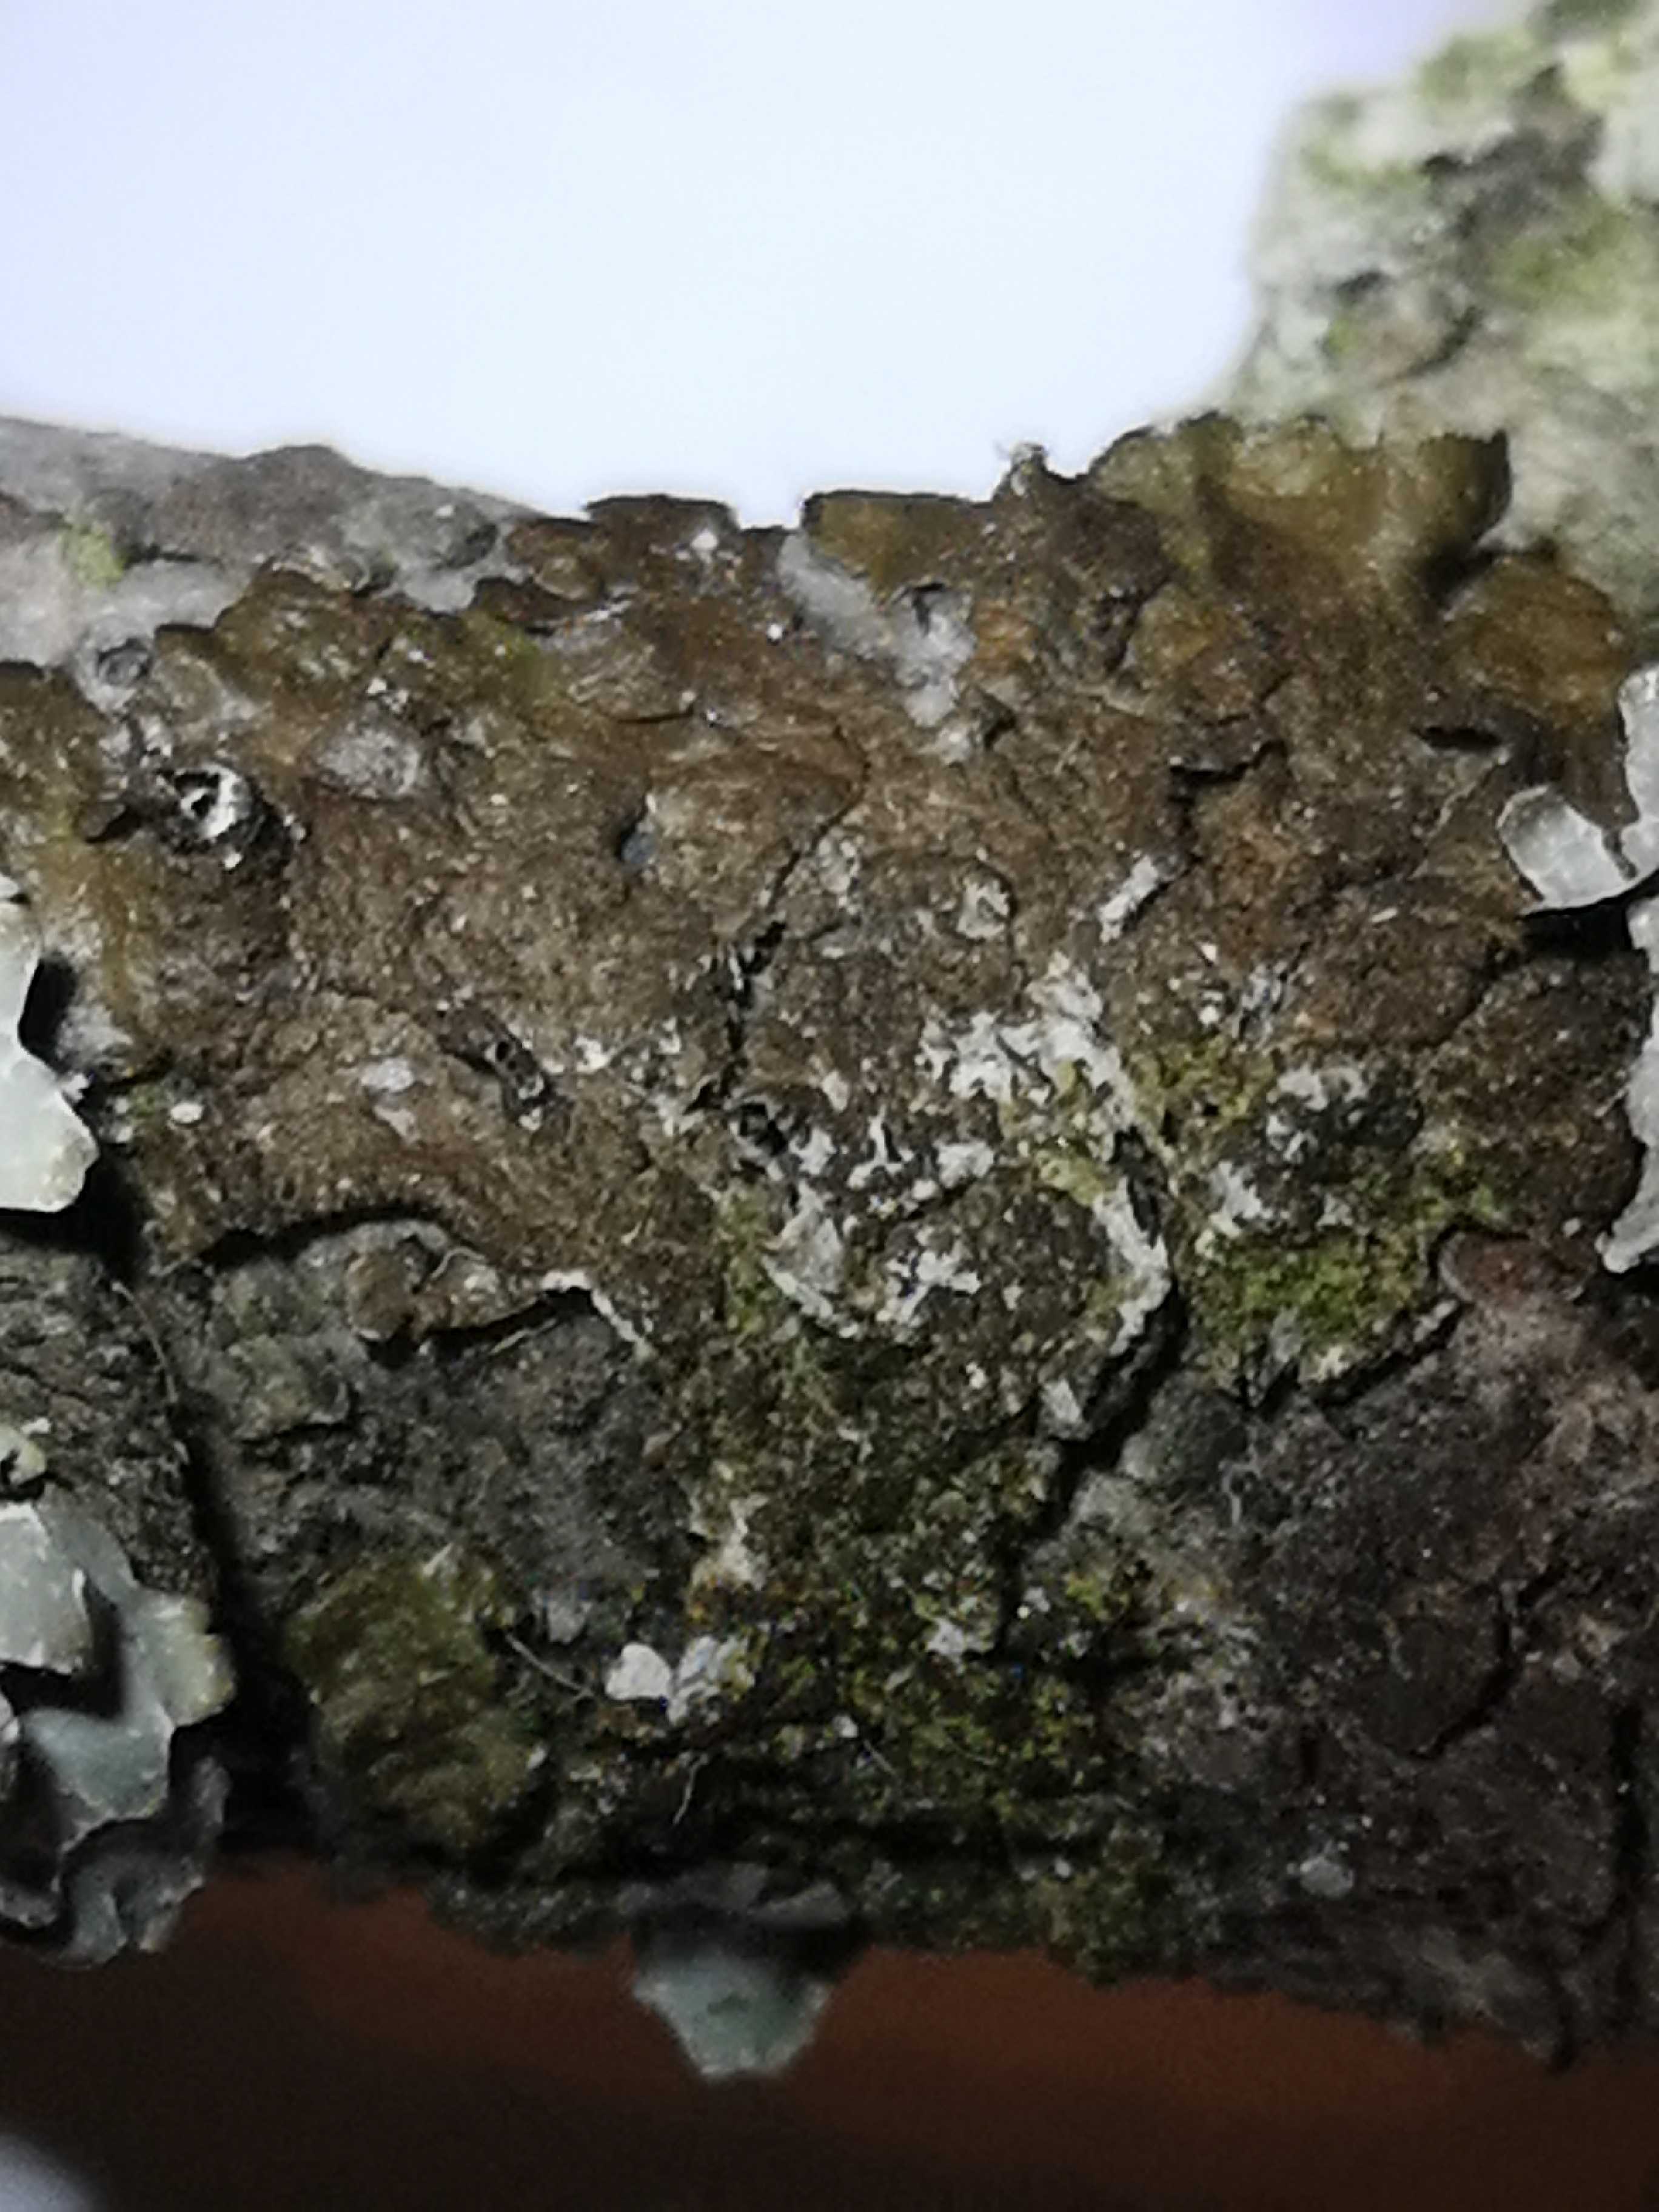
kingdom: Fungi
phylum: Ascomycota
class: Lecanoromycetes
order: Lecanorales
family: Parmeliaceae
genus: Melanelixia
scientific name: Melanelixia subaurifera
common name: guldpudret skållav
